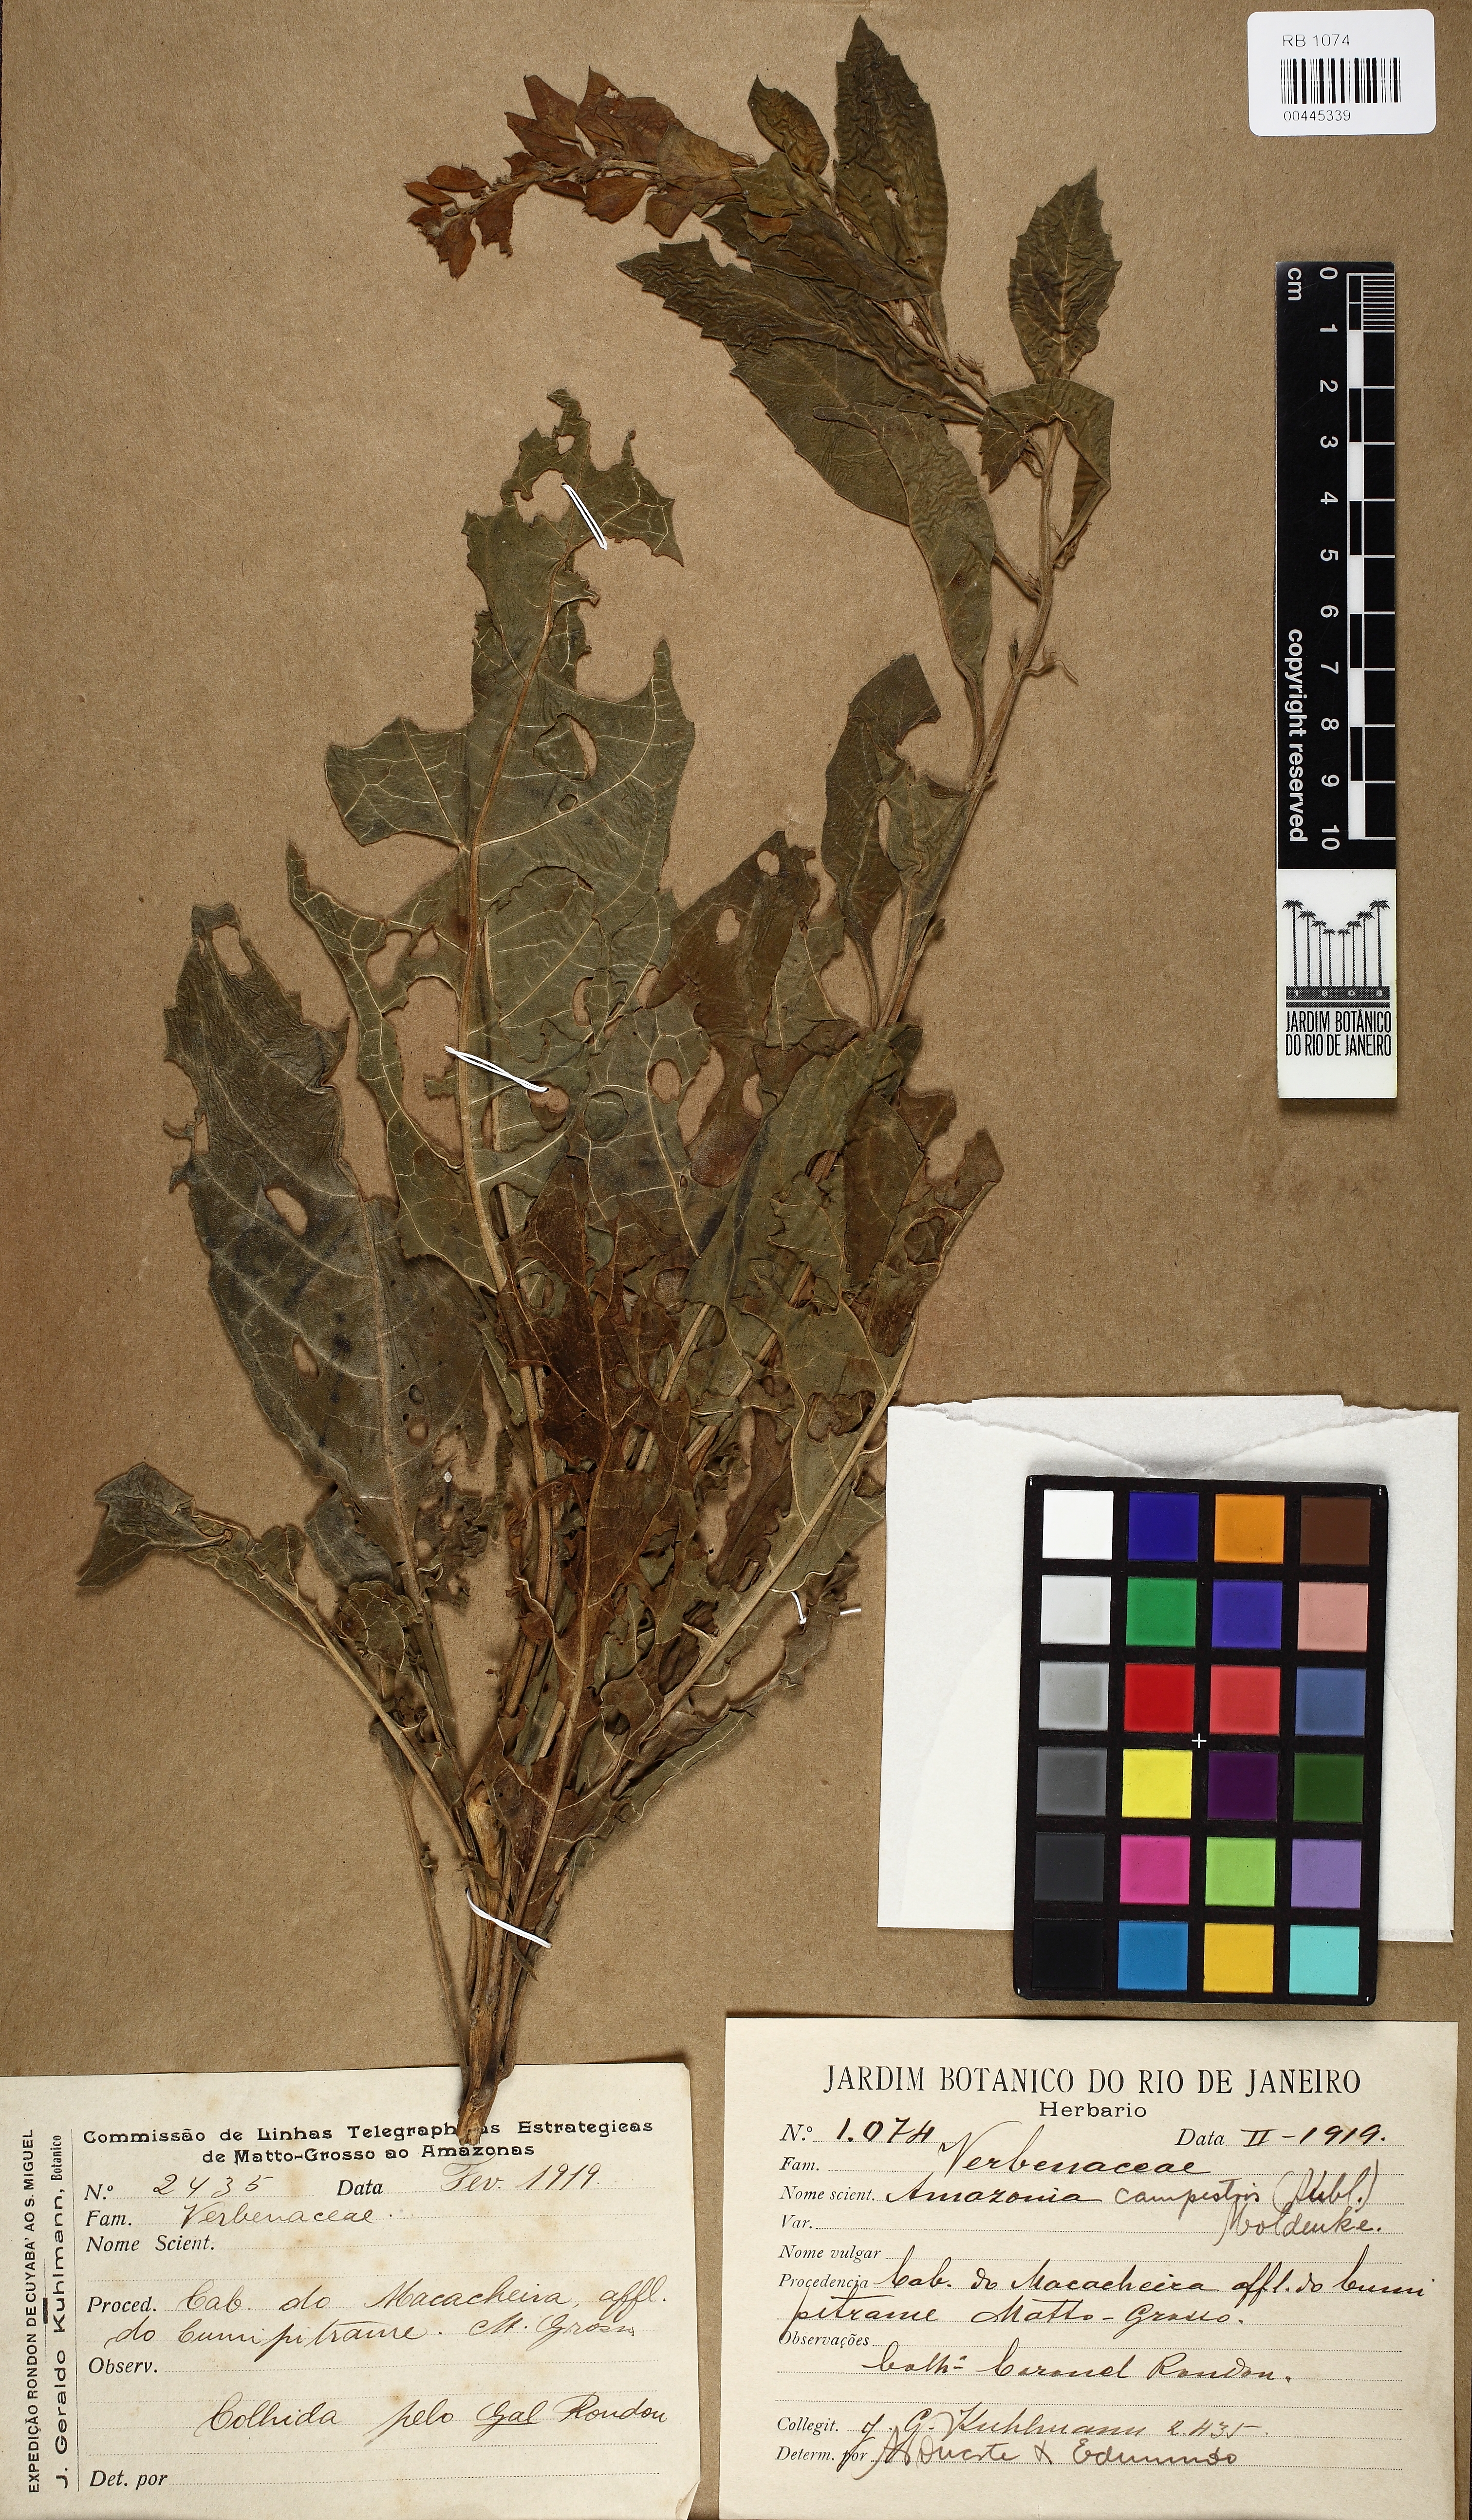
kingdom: Plantae
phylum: Tracheophyta
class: Magnoliopsida
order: Lamiales
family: Lamiaceae
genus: Amasonia
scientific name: Amasonia campestris
